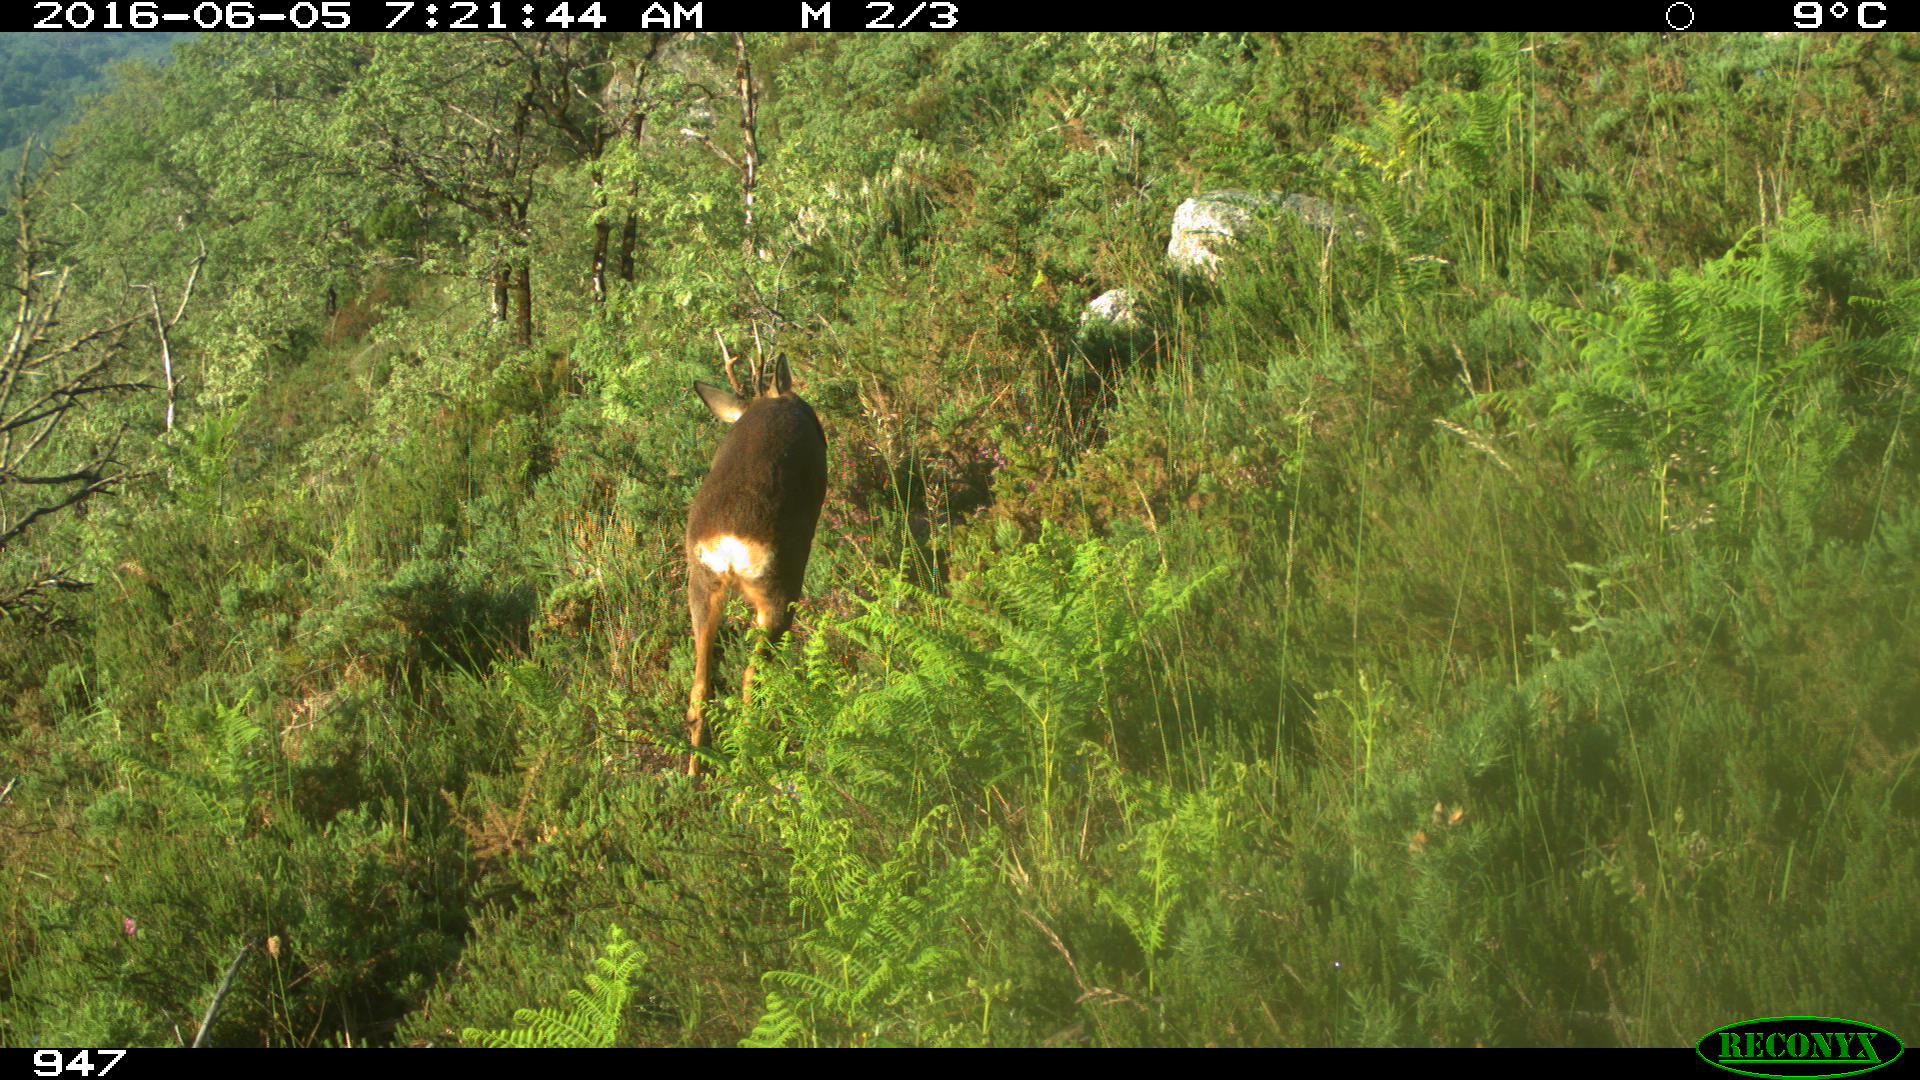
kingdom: Animalia
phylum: Chordata
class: Mammalia
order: Artiodactyla
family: Cervidae
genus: Capreolus
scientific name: Capreolus capreolus
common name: Western roe deer
